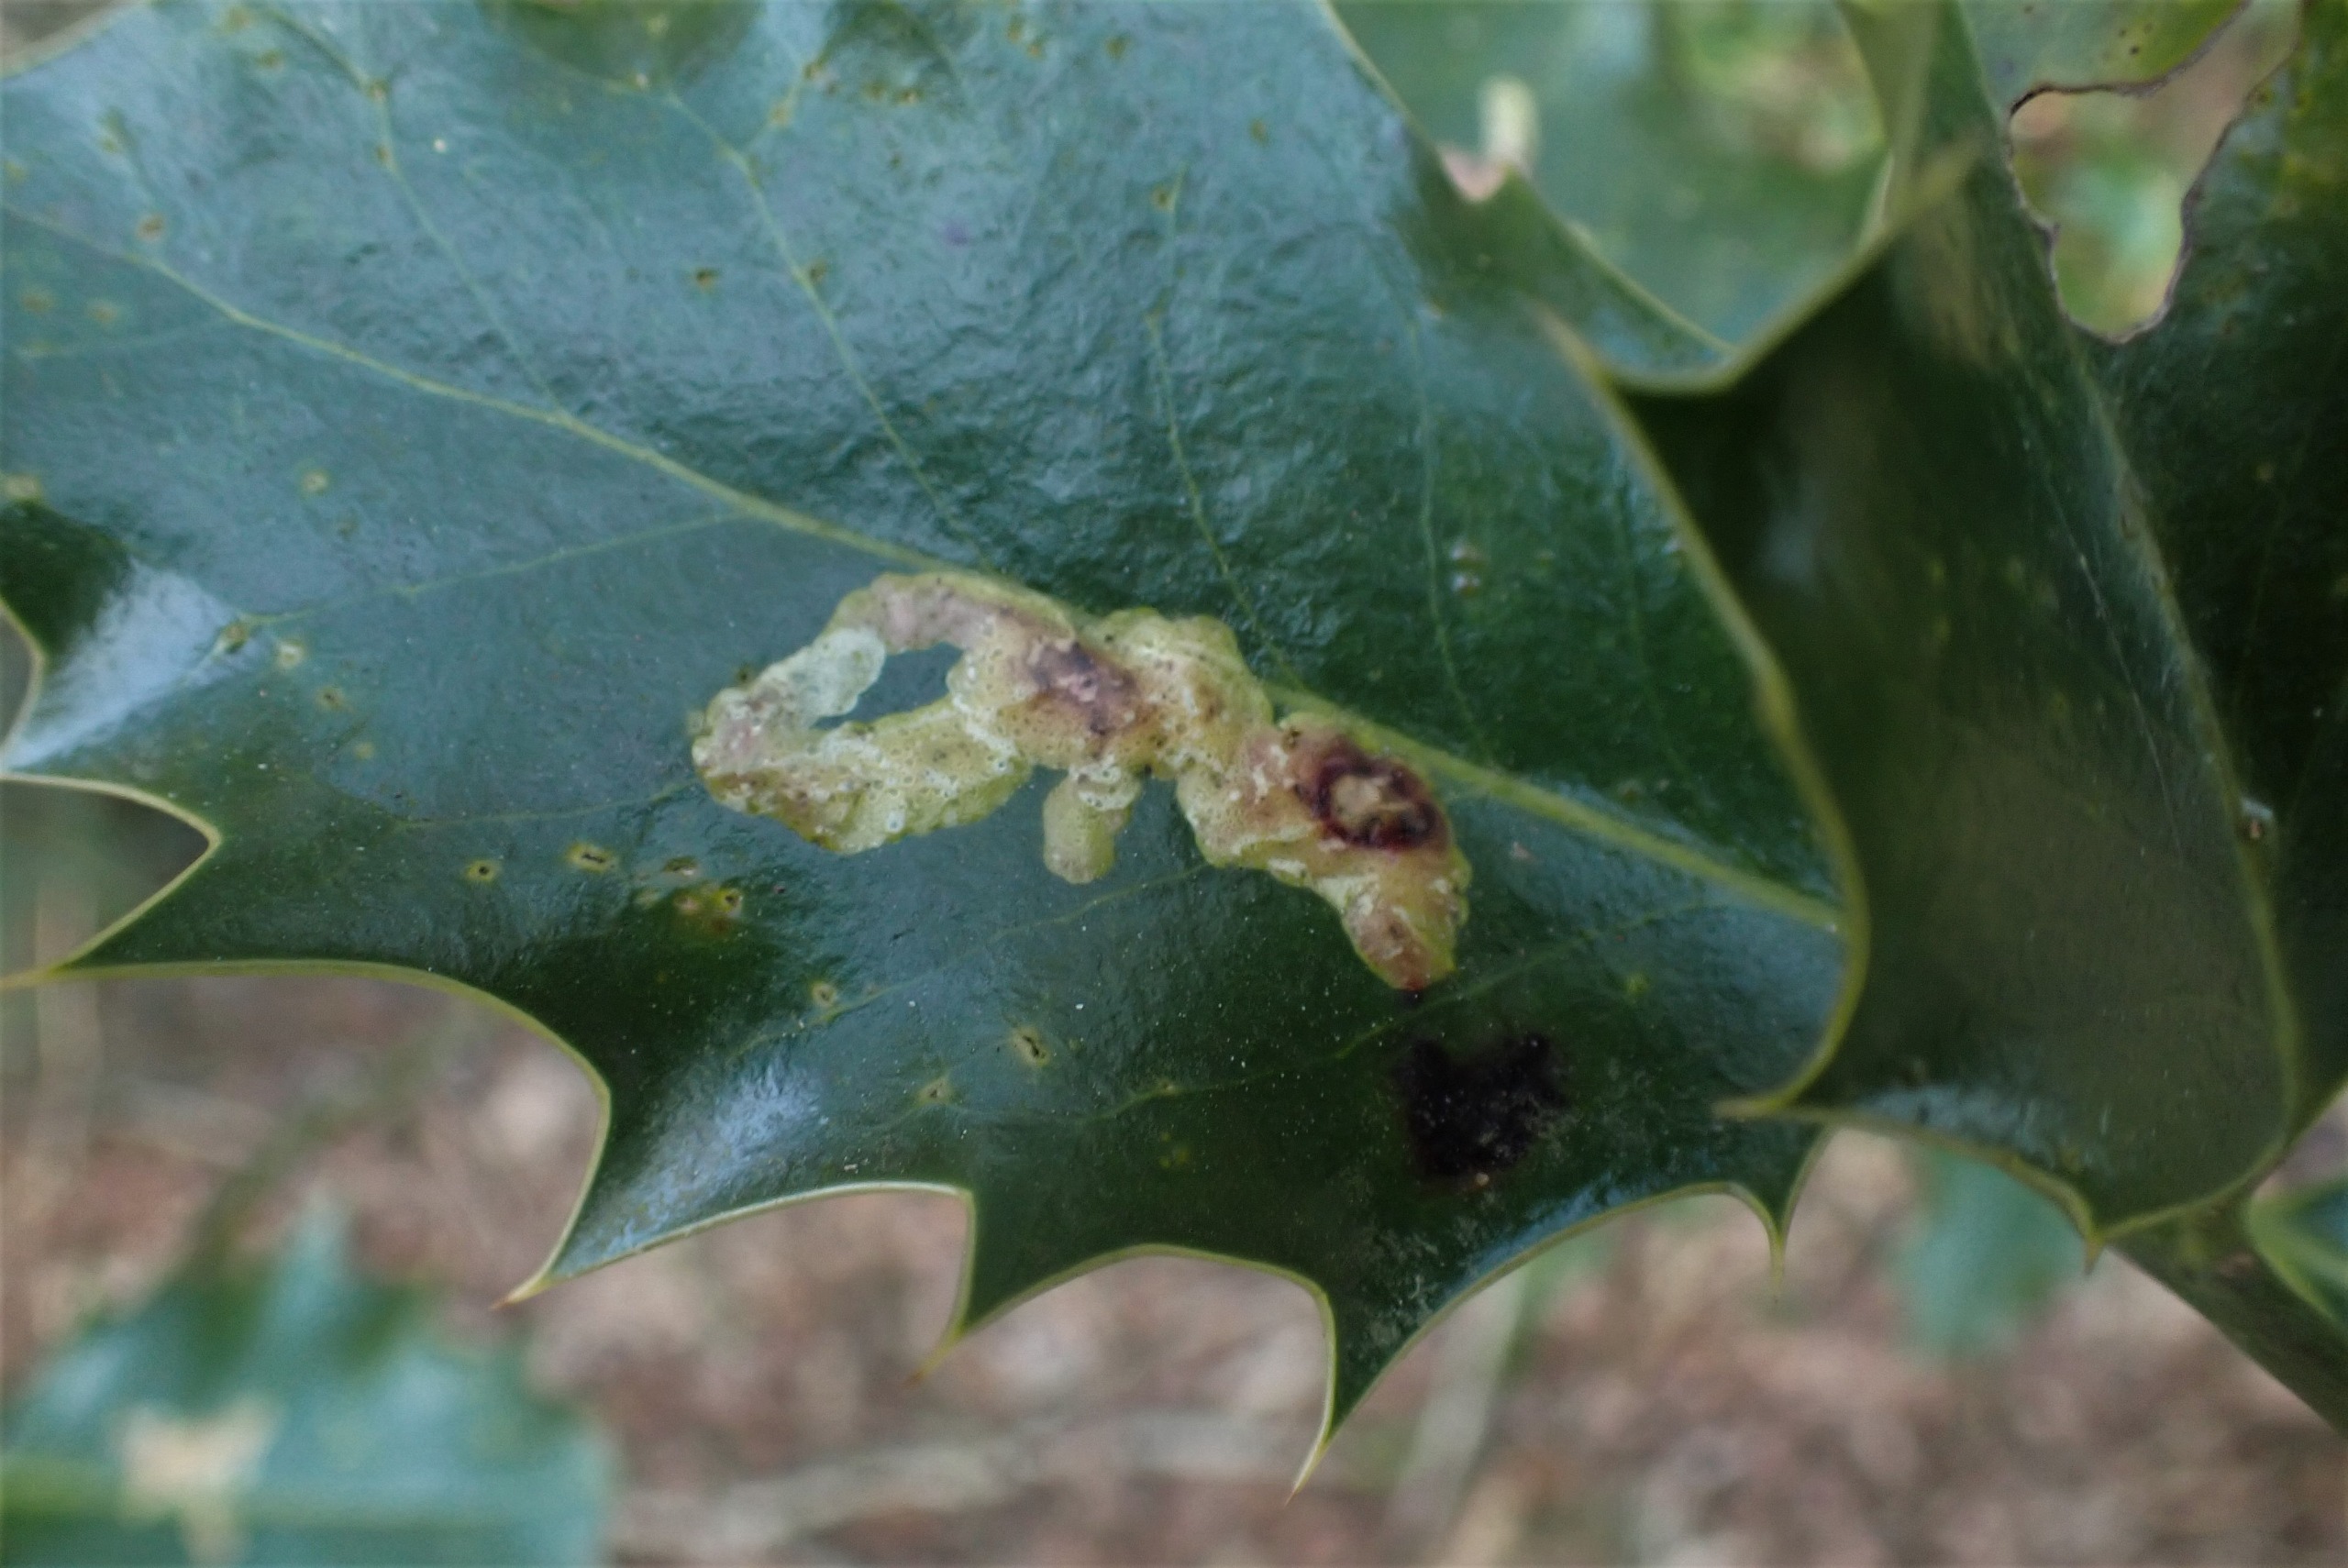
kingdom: Animalia
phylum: Arthropoda
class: Insecta
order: Diptera
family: Agromyzidae
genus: Phytomyza
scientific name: Phytomyza ilicis
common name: Kristtornminérflue
